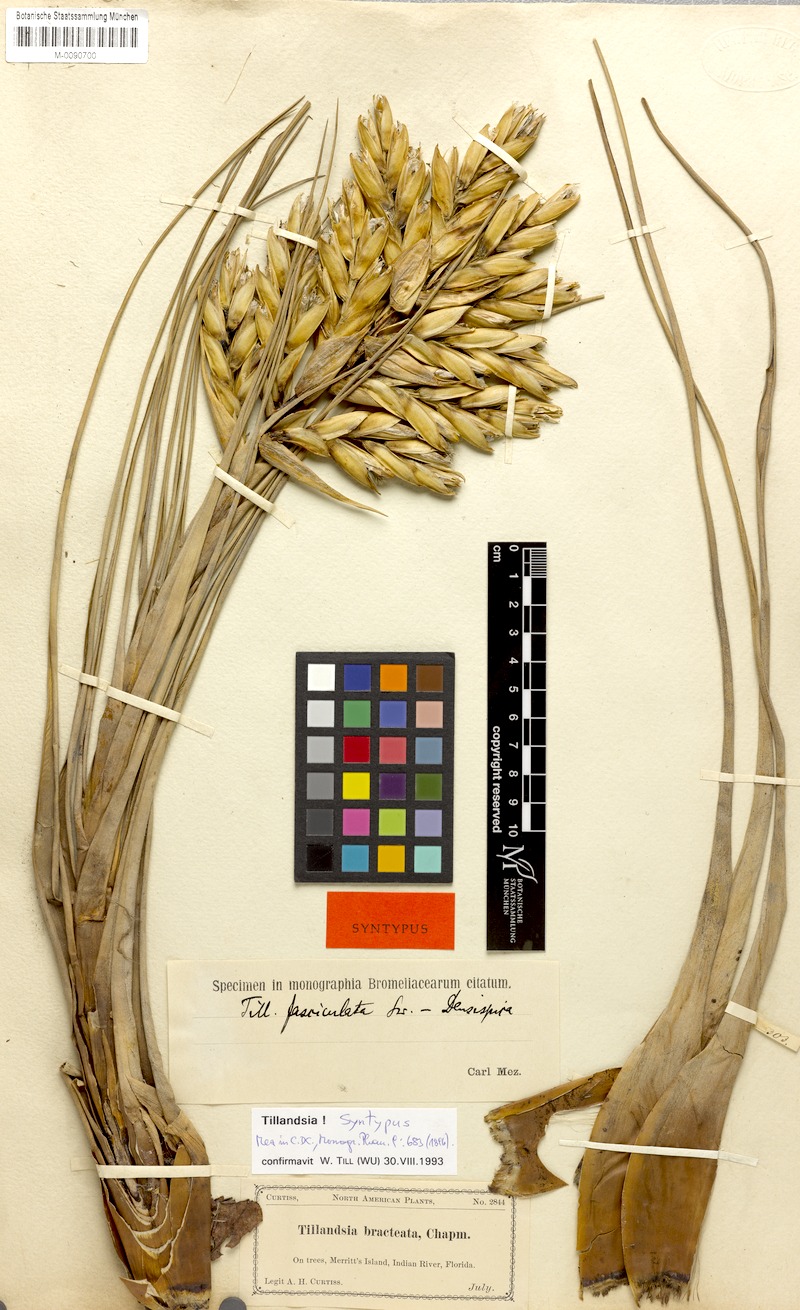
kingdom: Plantae
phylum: Tracheophyta
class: Liliopsida
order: Poales
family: Bromeliaceae
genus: Tillandsia
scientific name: Tillandsia fasciculata
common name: Giant airplant
